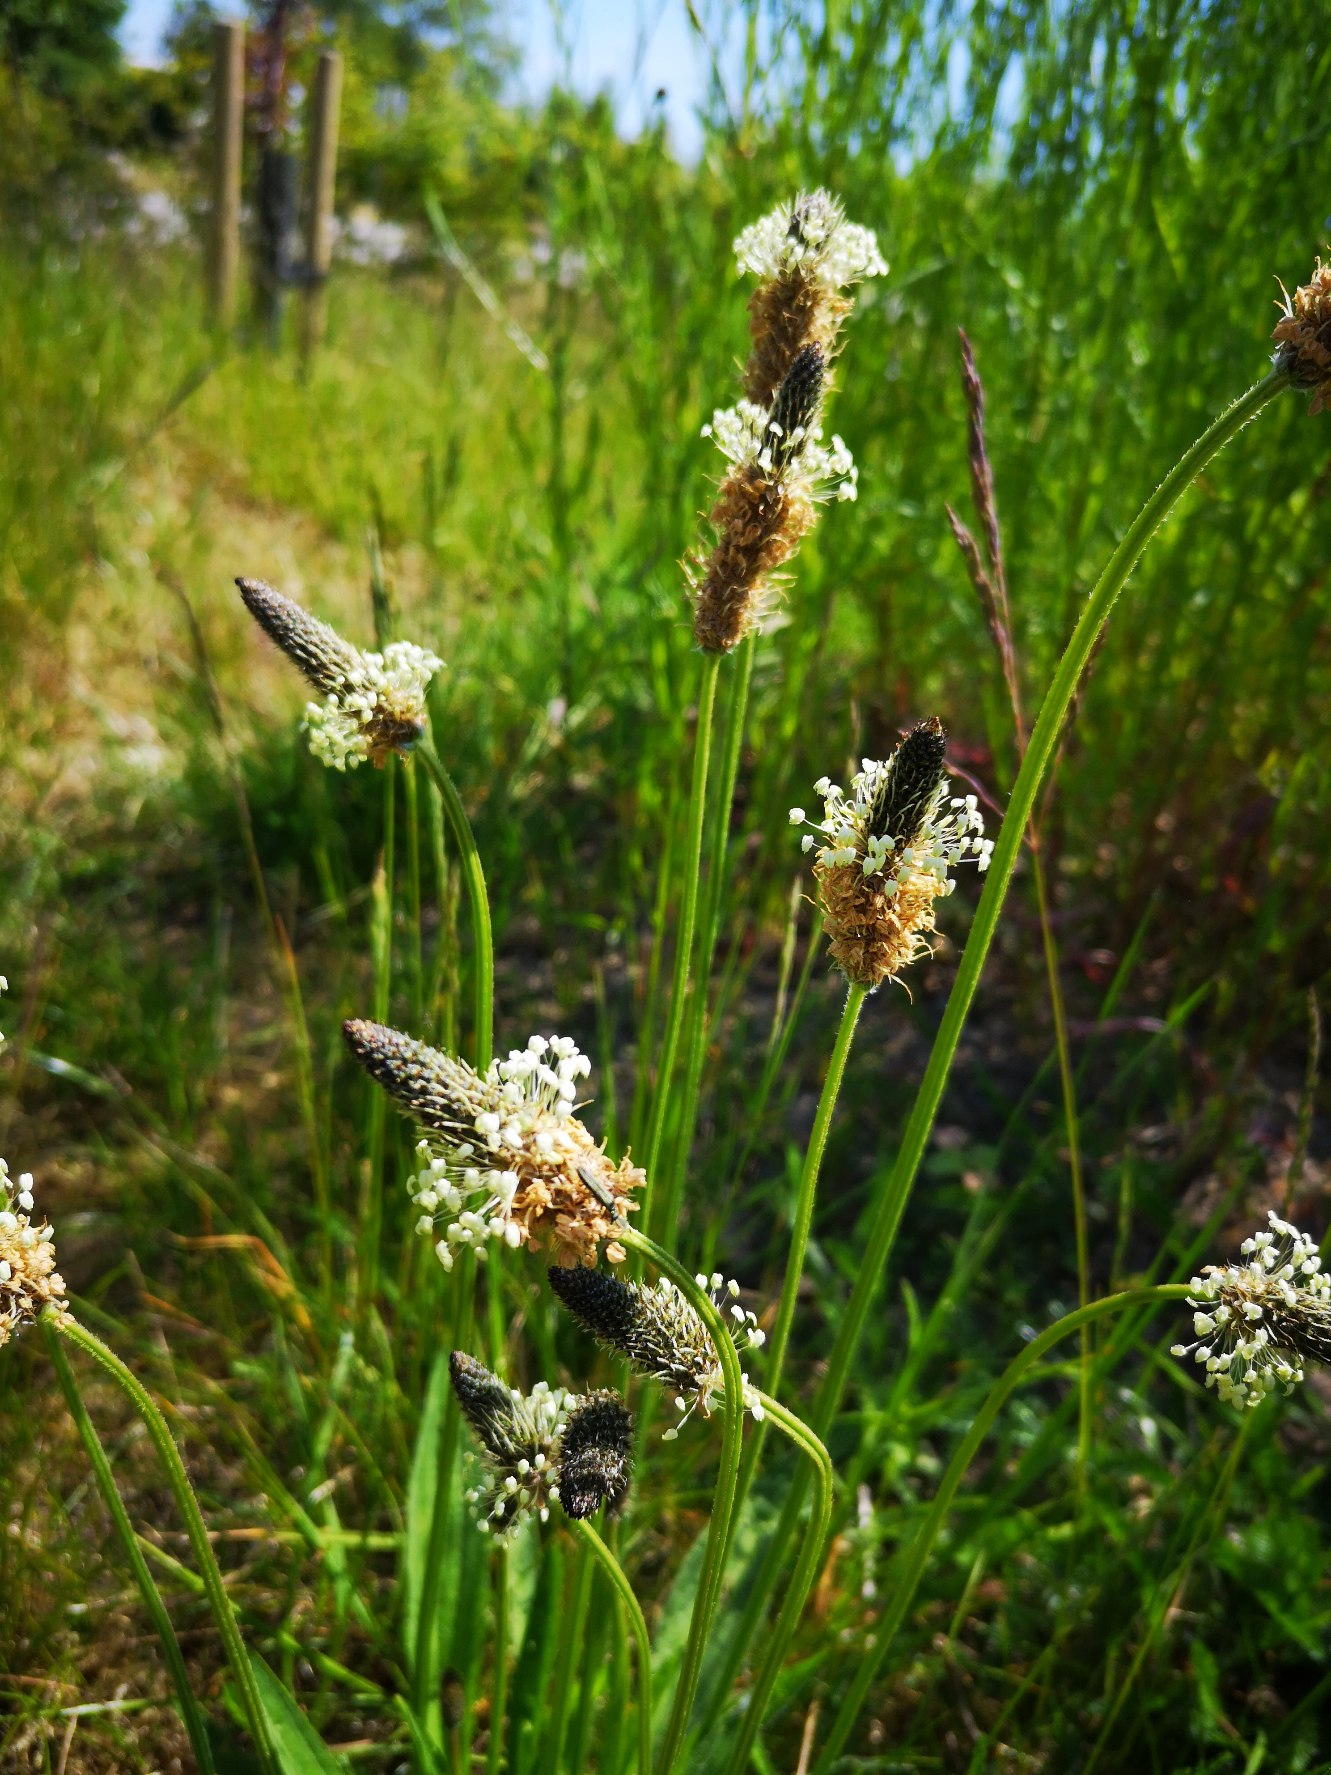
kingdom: Plantae
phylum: Tracheophyta
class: Magnoliopsida
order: Lamiales
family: Plantaginaceae
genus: Plantago
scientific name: Plantago lanceolata
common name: Lancet-vejbred
